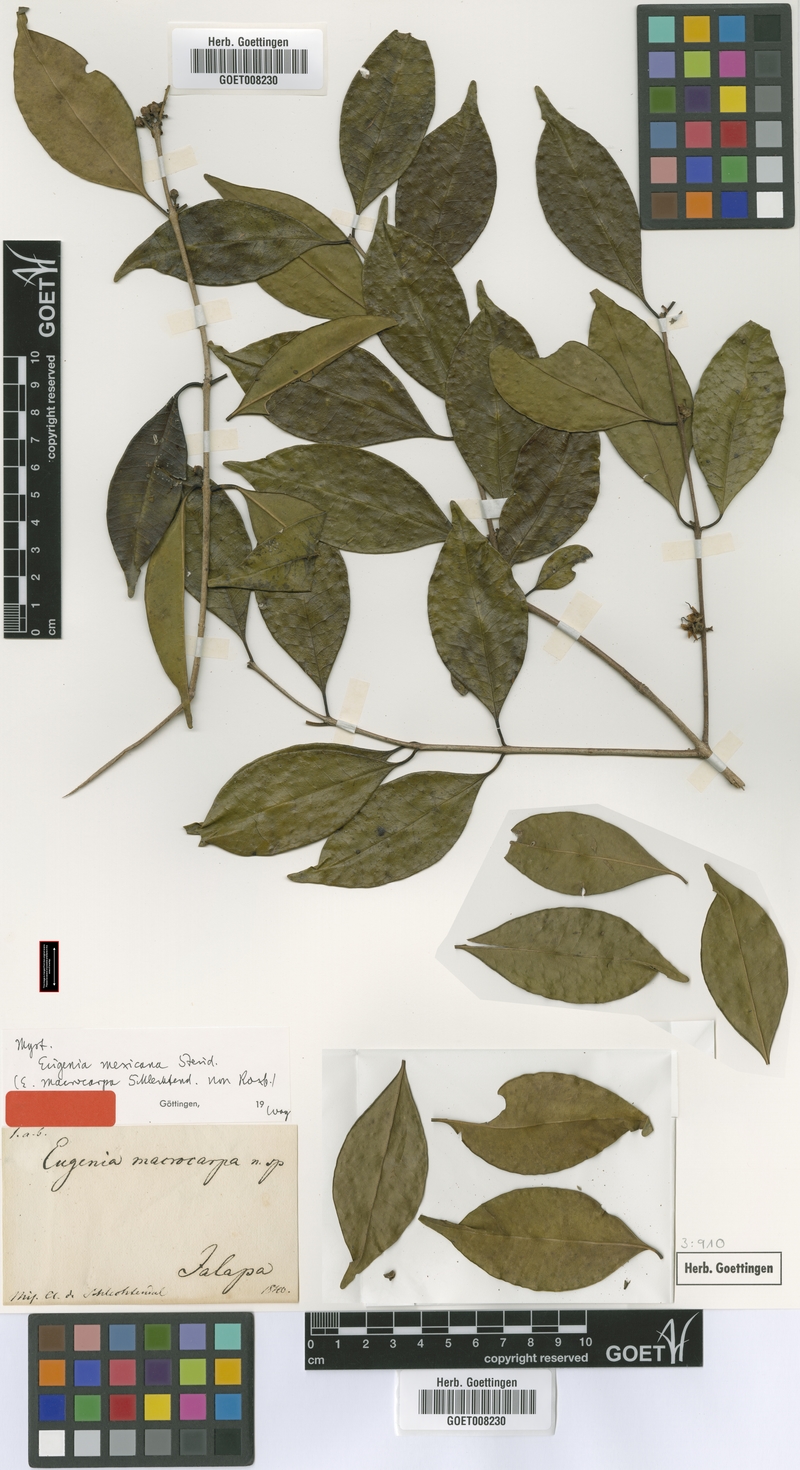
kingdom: Plantae
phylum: Tracheophyta
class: Magnoliopsida
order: Myrtales
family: Myrtaceae
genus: Eugenia
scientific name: Eugenia macrocarpa
